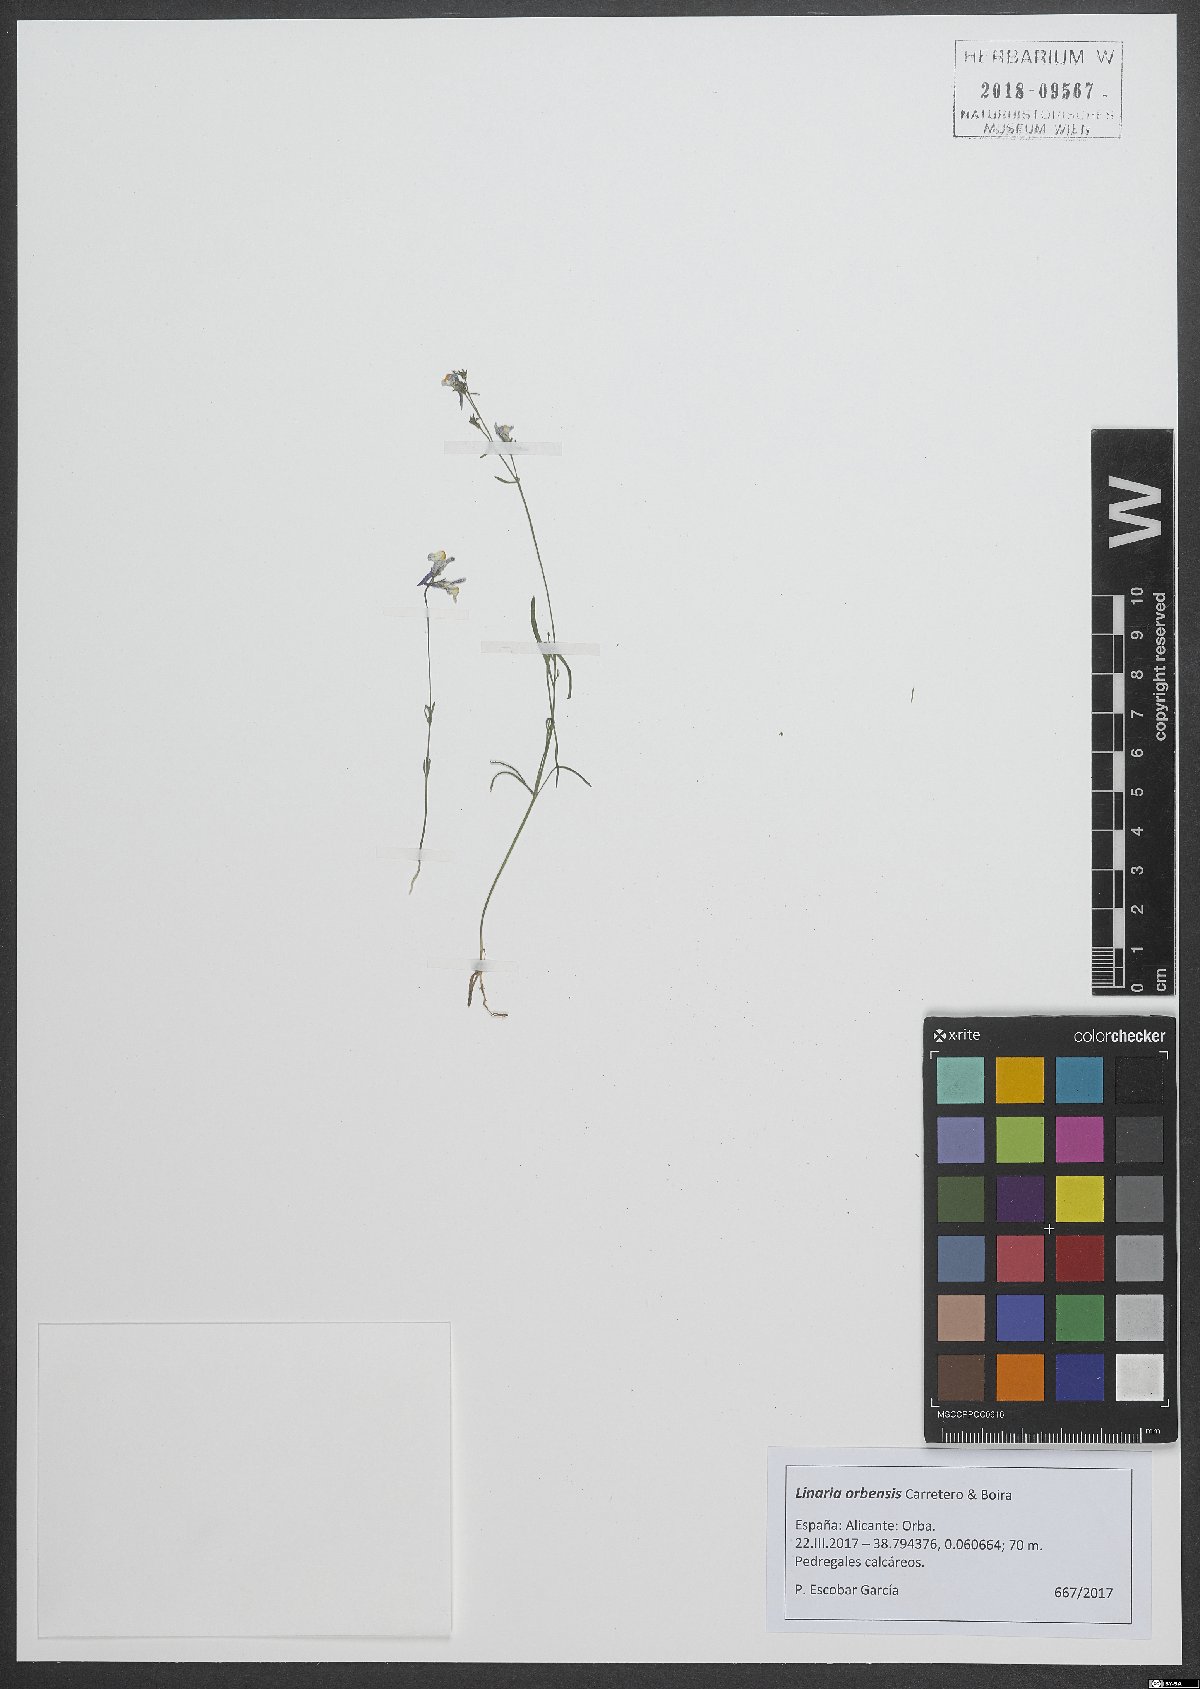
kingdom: Plantae
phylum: Tracheophyta
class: Magnoliopsida
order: Lamiales
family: Plantaginaceae
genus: Linaria
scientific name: Linaria orbensis
